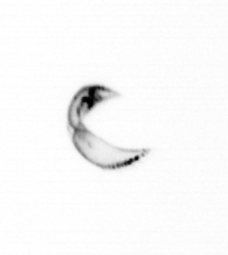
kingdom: Chromista
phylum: Ochrophyta
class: Bacillariophyceae
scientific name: Bacillariophyceae
